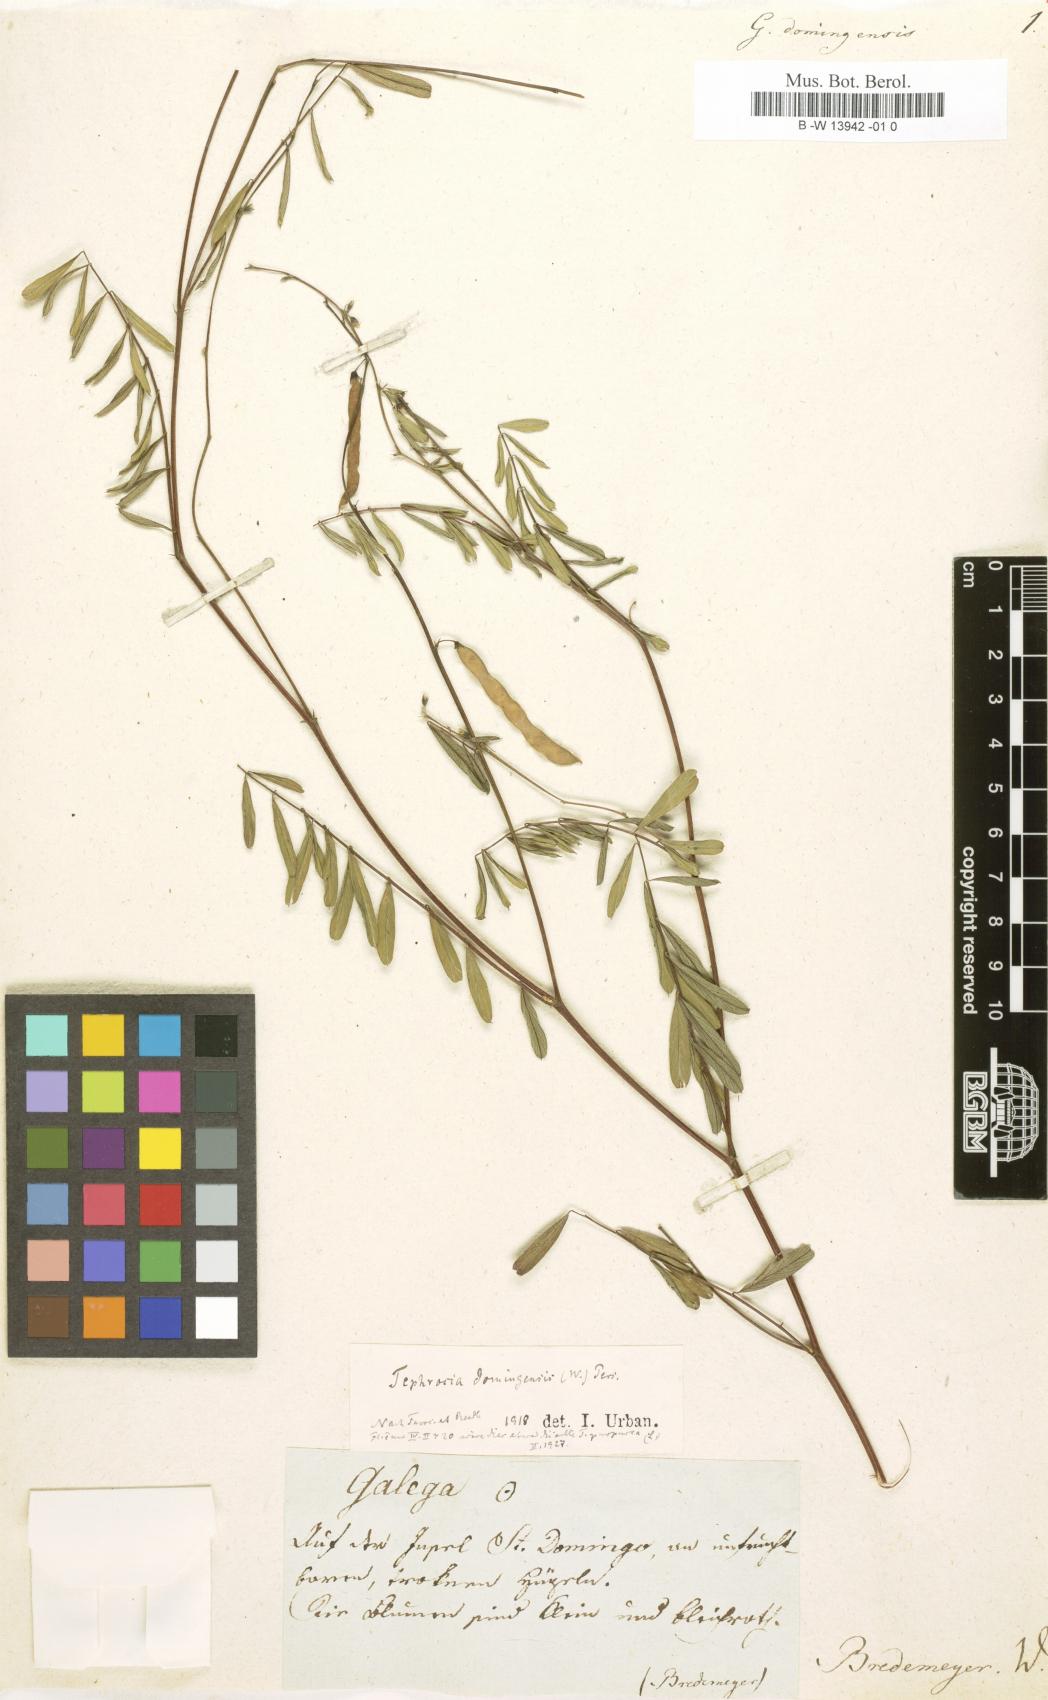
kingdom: Plantae
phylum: Tracheophyta
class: Magnoliopsida
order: Fabales
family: Fabaceae
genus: Tephrosia
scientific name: Tephrosia domingensis
